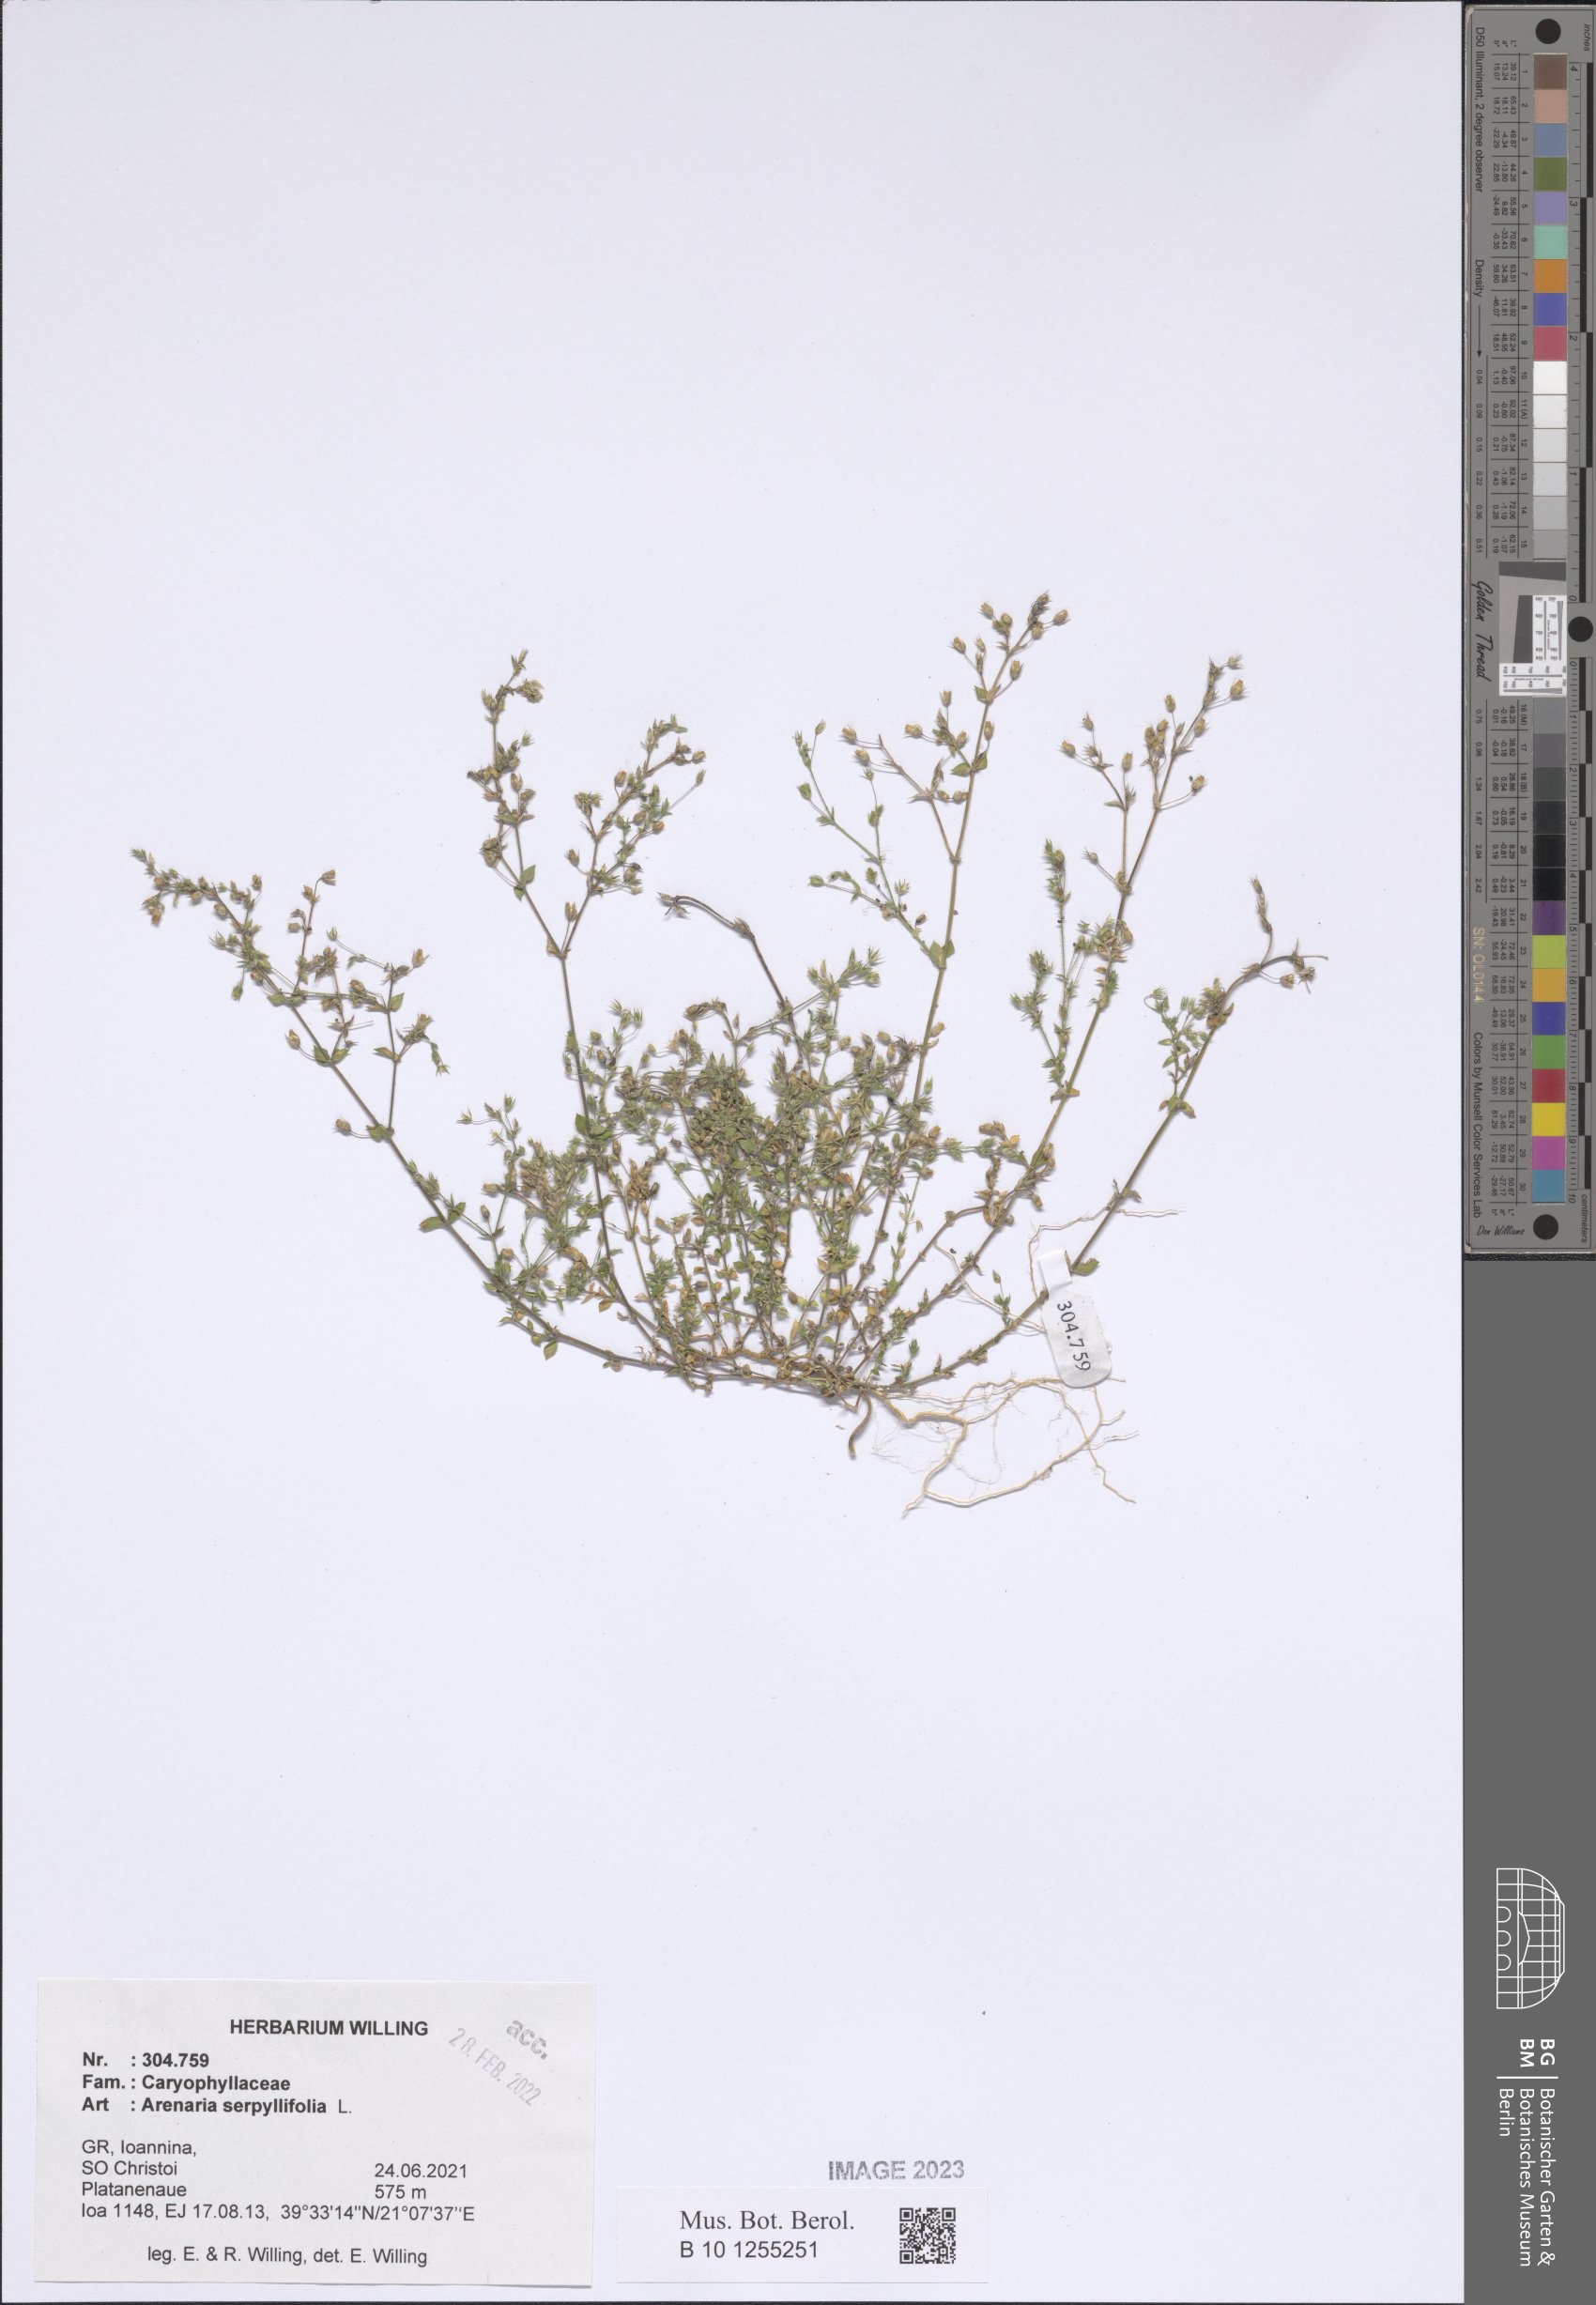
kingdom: Plantae
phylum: Tracheophyta
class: Magnoliopsida
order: Caryophyllales
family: Caryophyllaceae
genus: Arenaria
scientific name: Arenaria serpyllifolia
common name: Thyme-leaved sandwort
